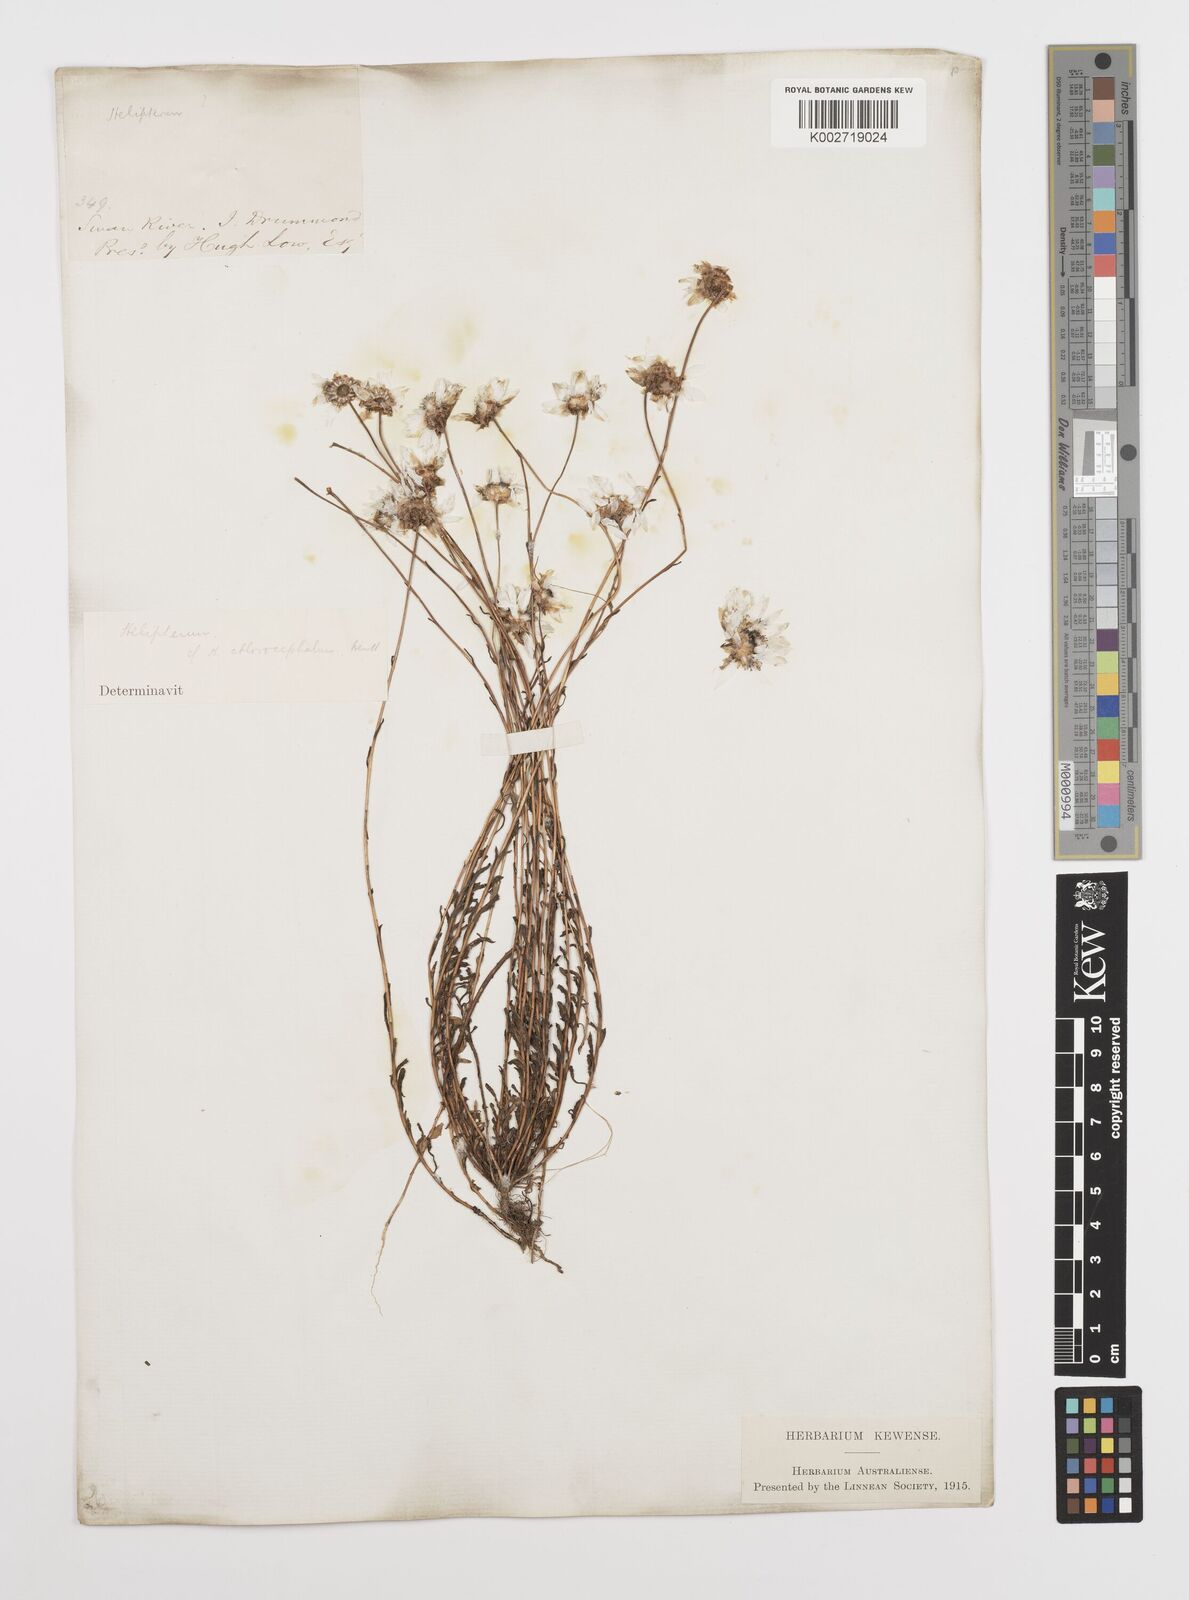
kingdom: Plantae
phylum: Tracheophyta
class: Magnoliopsida
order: Asterales
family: Asteraceae
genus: Rhodanthe
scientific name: Rhodanthe chlorocephala
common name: Rosy sunray
